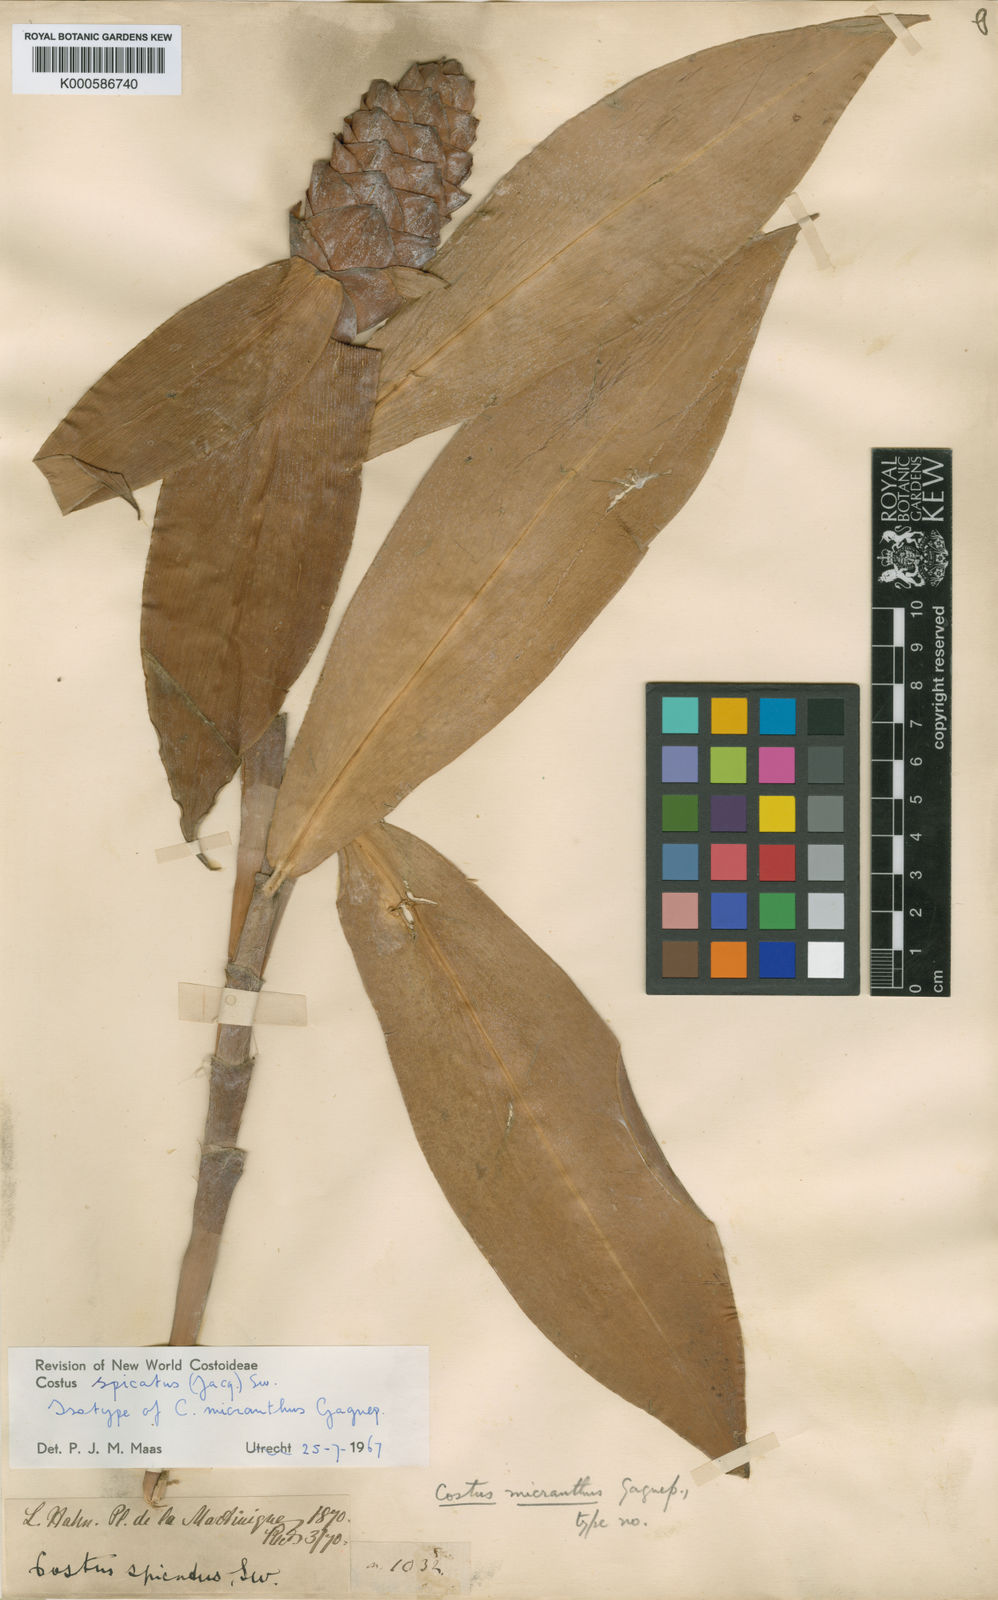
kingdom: Plantae
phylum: Tracheophyta
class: Liliopsida
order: Zingiberales
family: Costaceae
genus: Costus
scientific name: Costus spicatus
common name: Spiked spiral-flag
